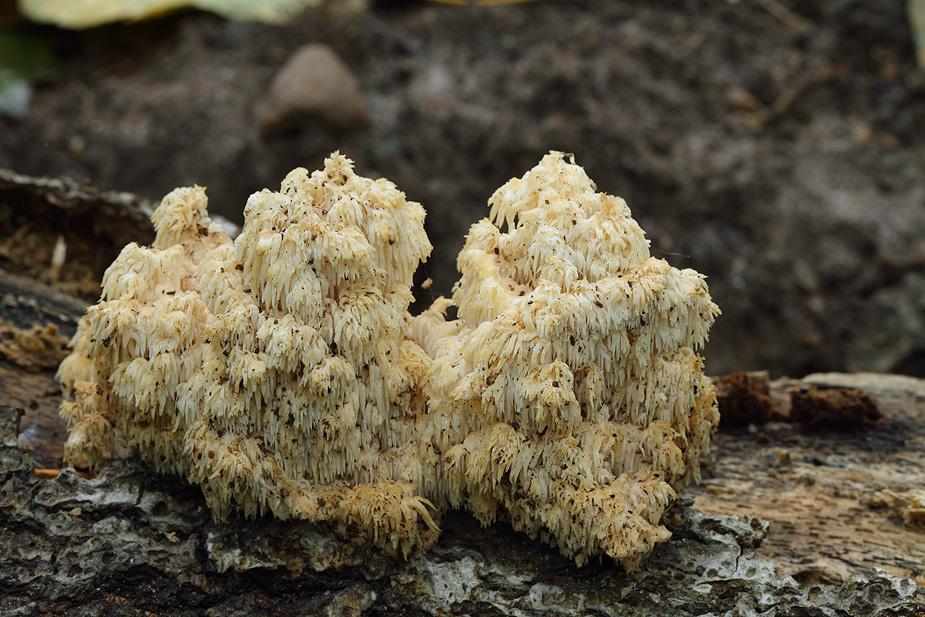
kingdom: Fungi
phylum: Basidiomycota
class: Agaricomycetes
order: Russulales
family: Hericiaceae
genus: Hericium
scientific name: Hericium coralloides
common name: koralpigsvamp
